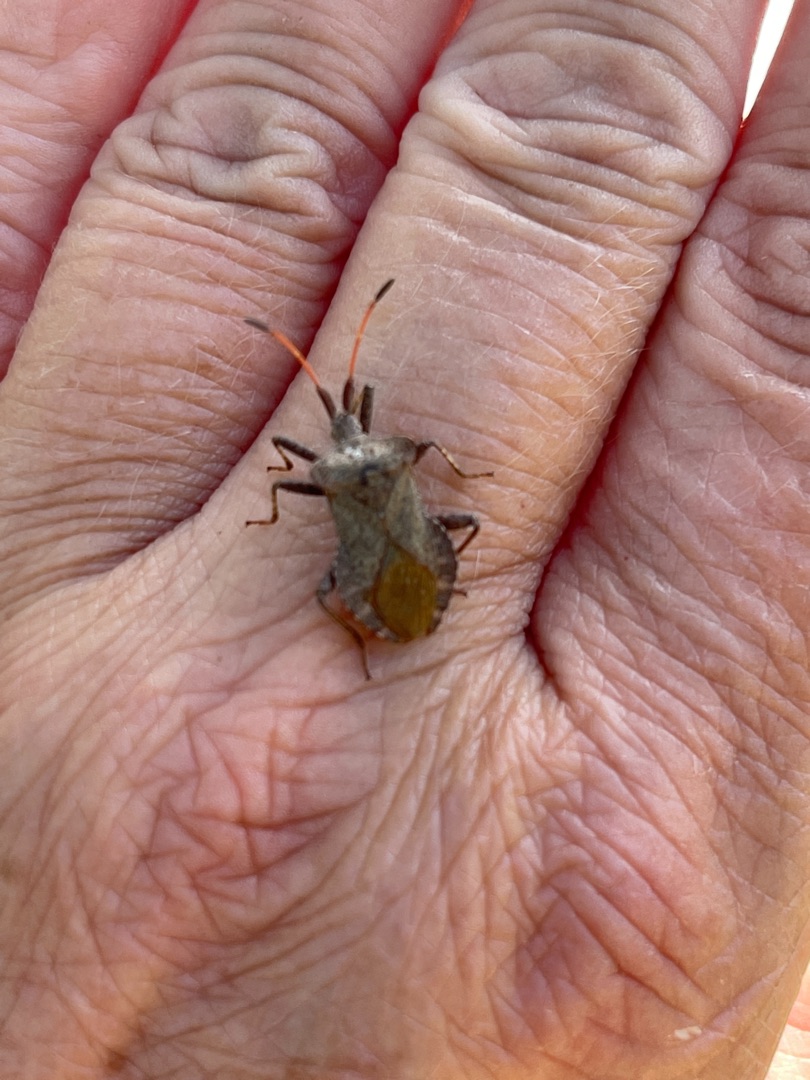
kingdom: Animalia
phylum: Arthropoda
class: Insecta
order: Hemiptera
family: Coreidae
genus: Coreus
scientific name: Coreus marginatus
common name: Skræppetæge
